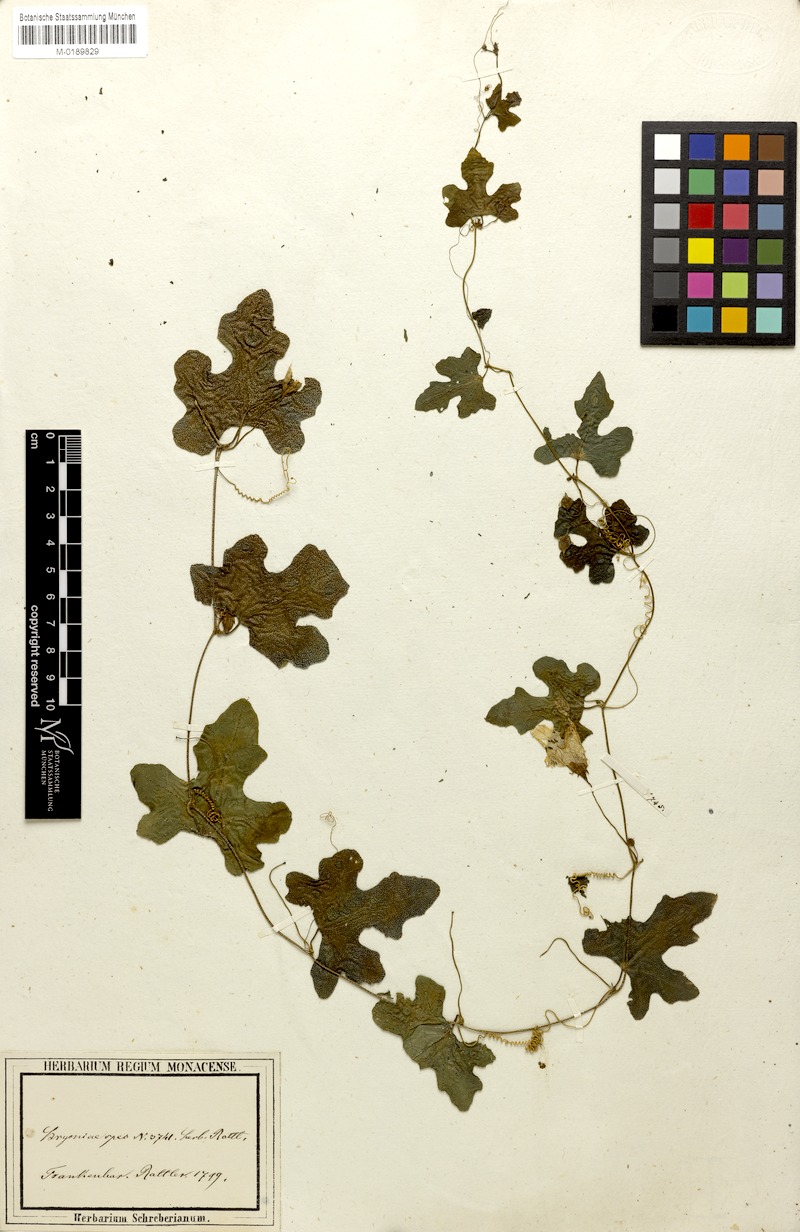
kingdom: Plantae
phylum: Tracheophyta
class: Magnoliopsida
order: Cucurbitales
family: Cucurbitaceae
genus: Coccinia
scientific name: Coccinia grandis
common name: Ivy gourd
